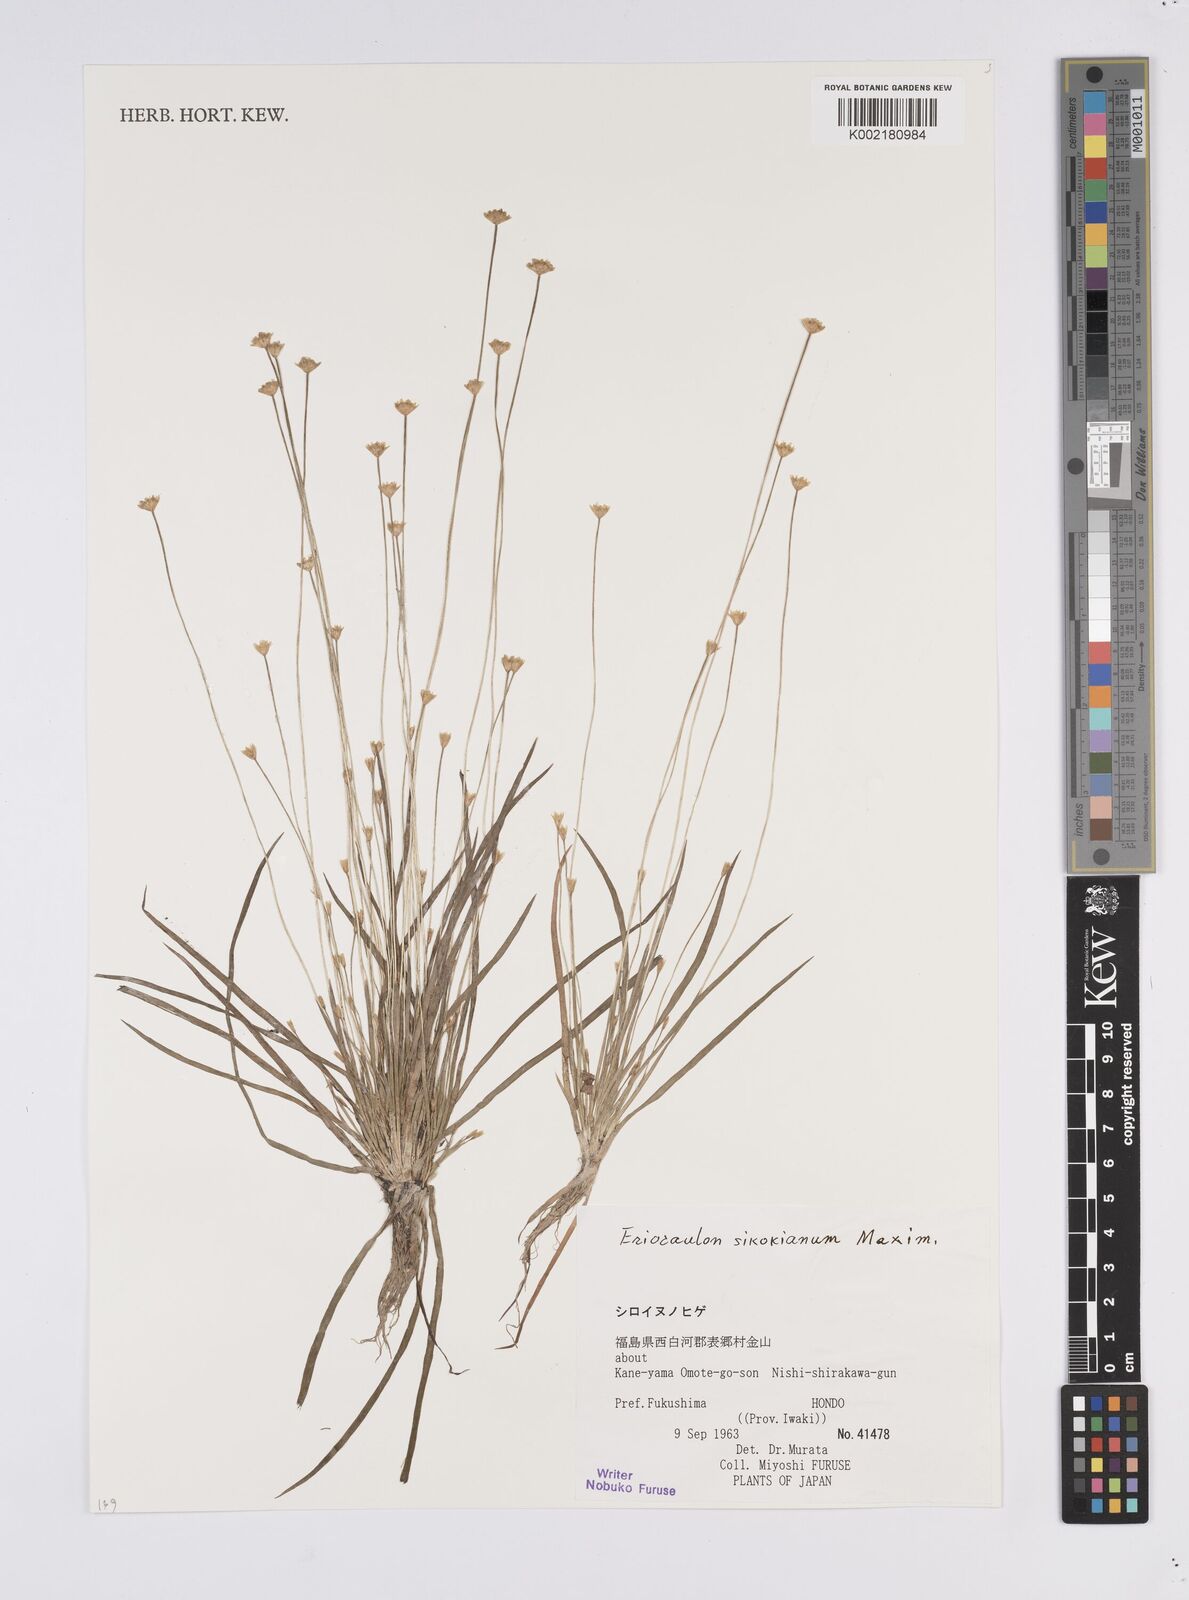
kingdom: Plantae
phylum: Tracheophyta
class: Liliopsida
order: Poales
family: Eriocaulaceae
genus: Eriocaulon
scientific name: Eriocaulon miquelianum
